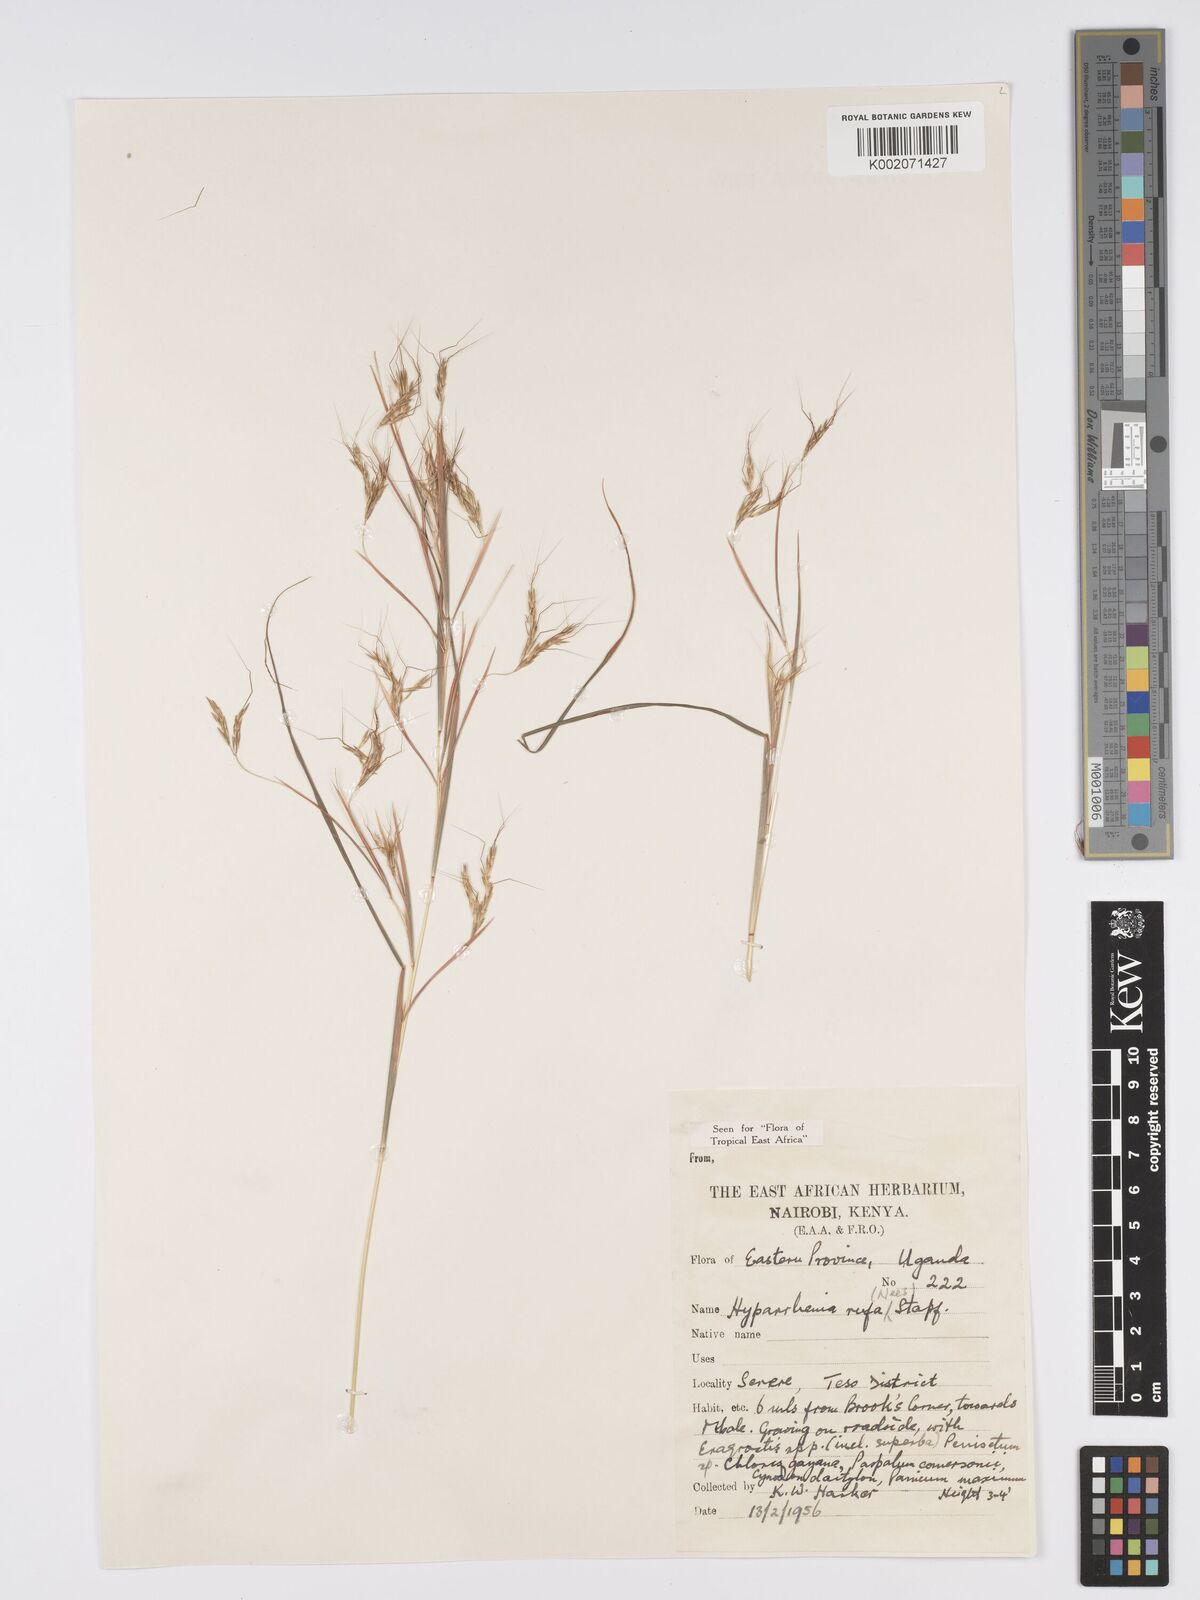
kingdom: Plantae
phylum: Tracheophyta
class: Liliopsida
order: Poales
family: Poaceae
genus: Hyparrhenia
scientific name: Hyparrhenia rufa
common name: Jaraguagrass
